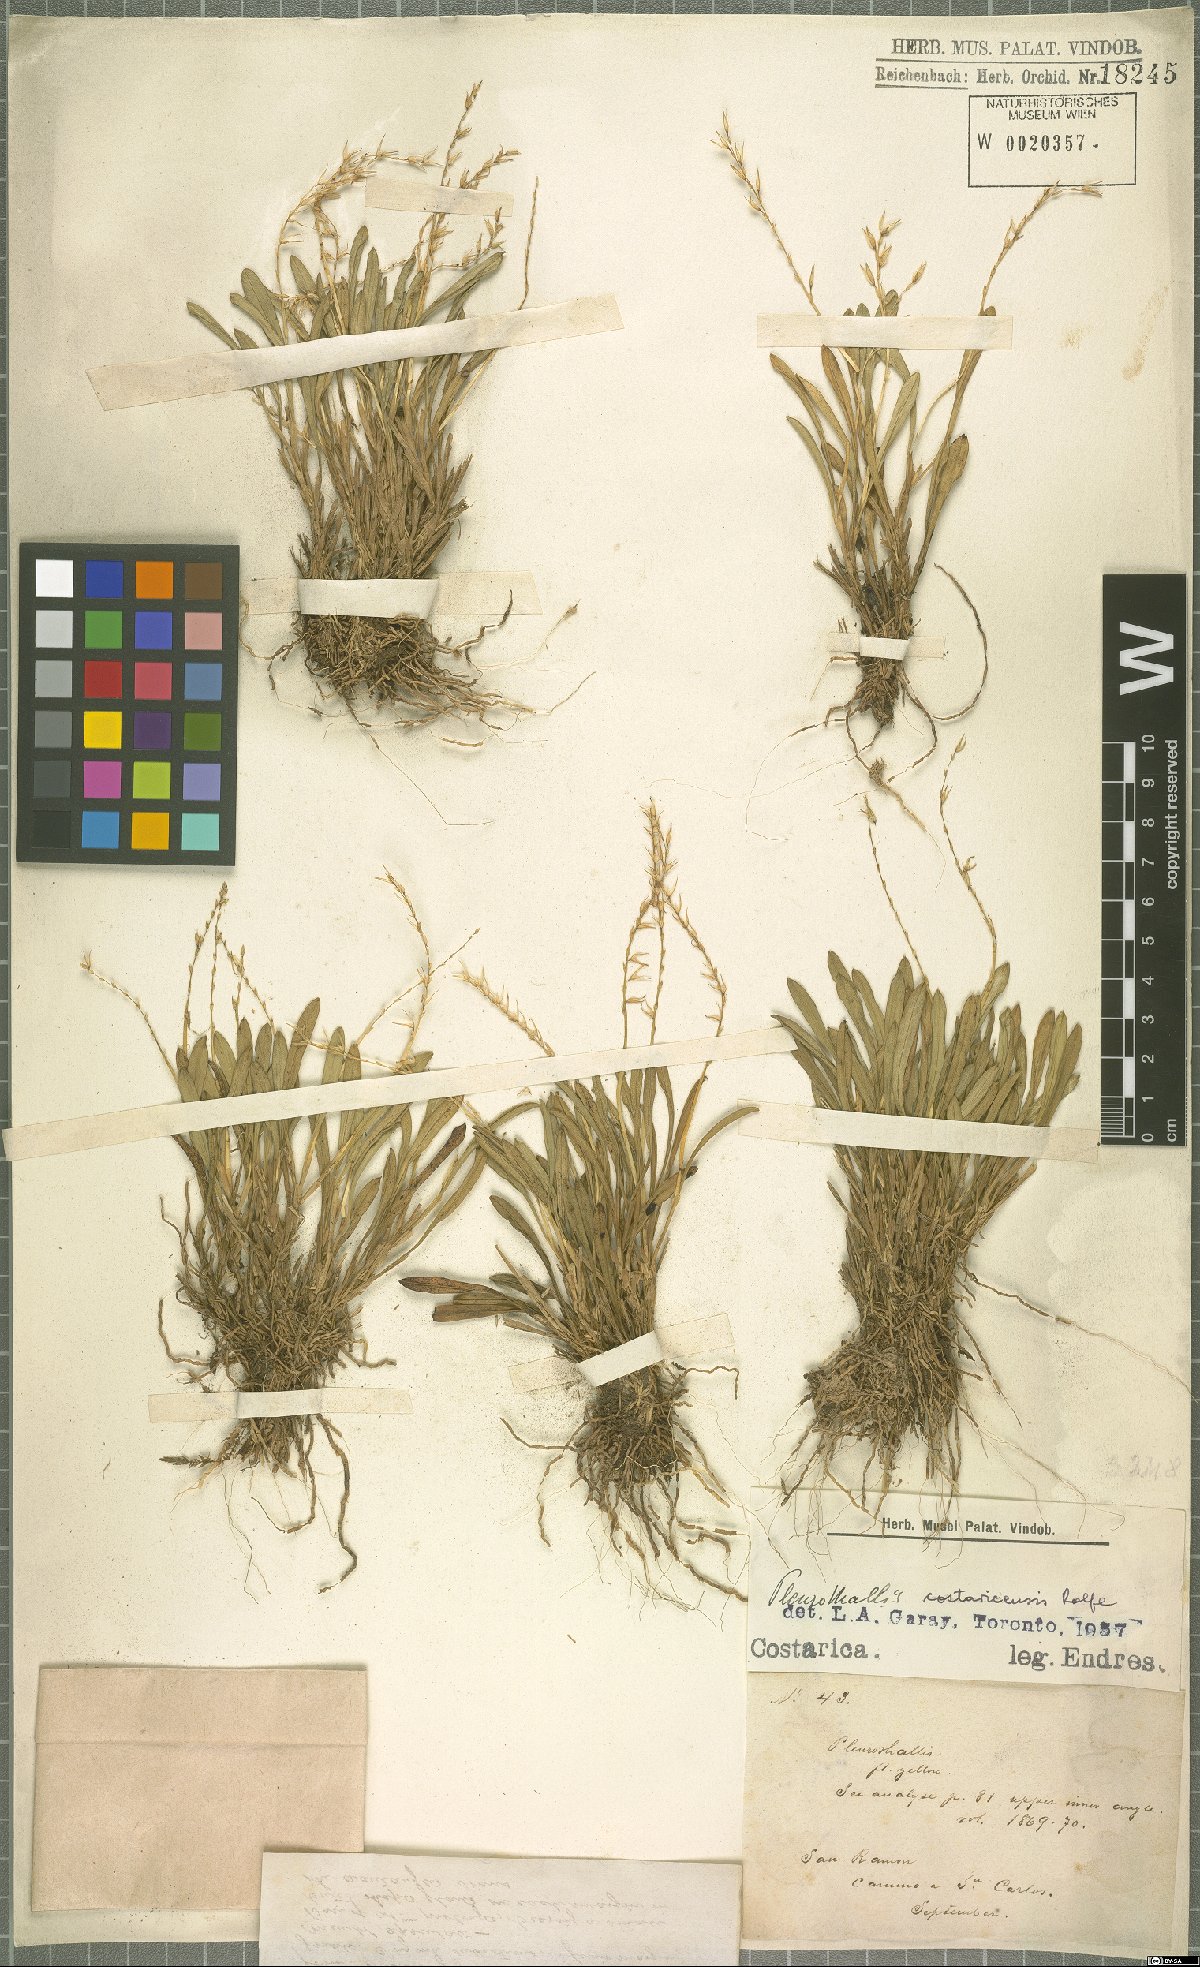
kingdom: Plantae
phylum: Tracheophyta
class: Liliopsida
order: Asparagales
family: Orchidaceae
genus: Specklinia
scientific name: Specklinia costaricensis
